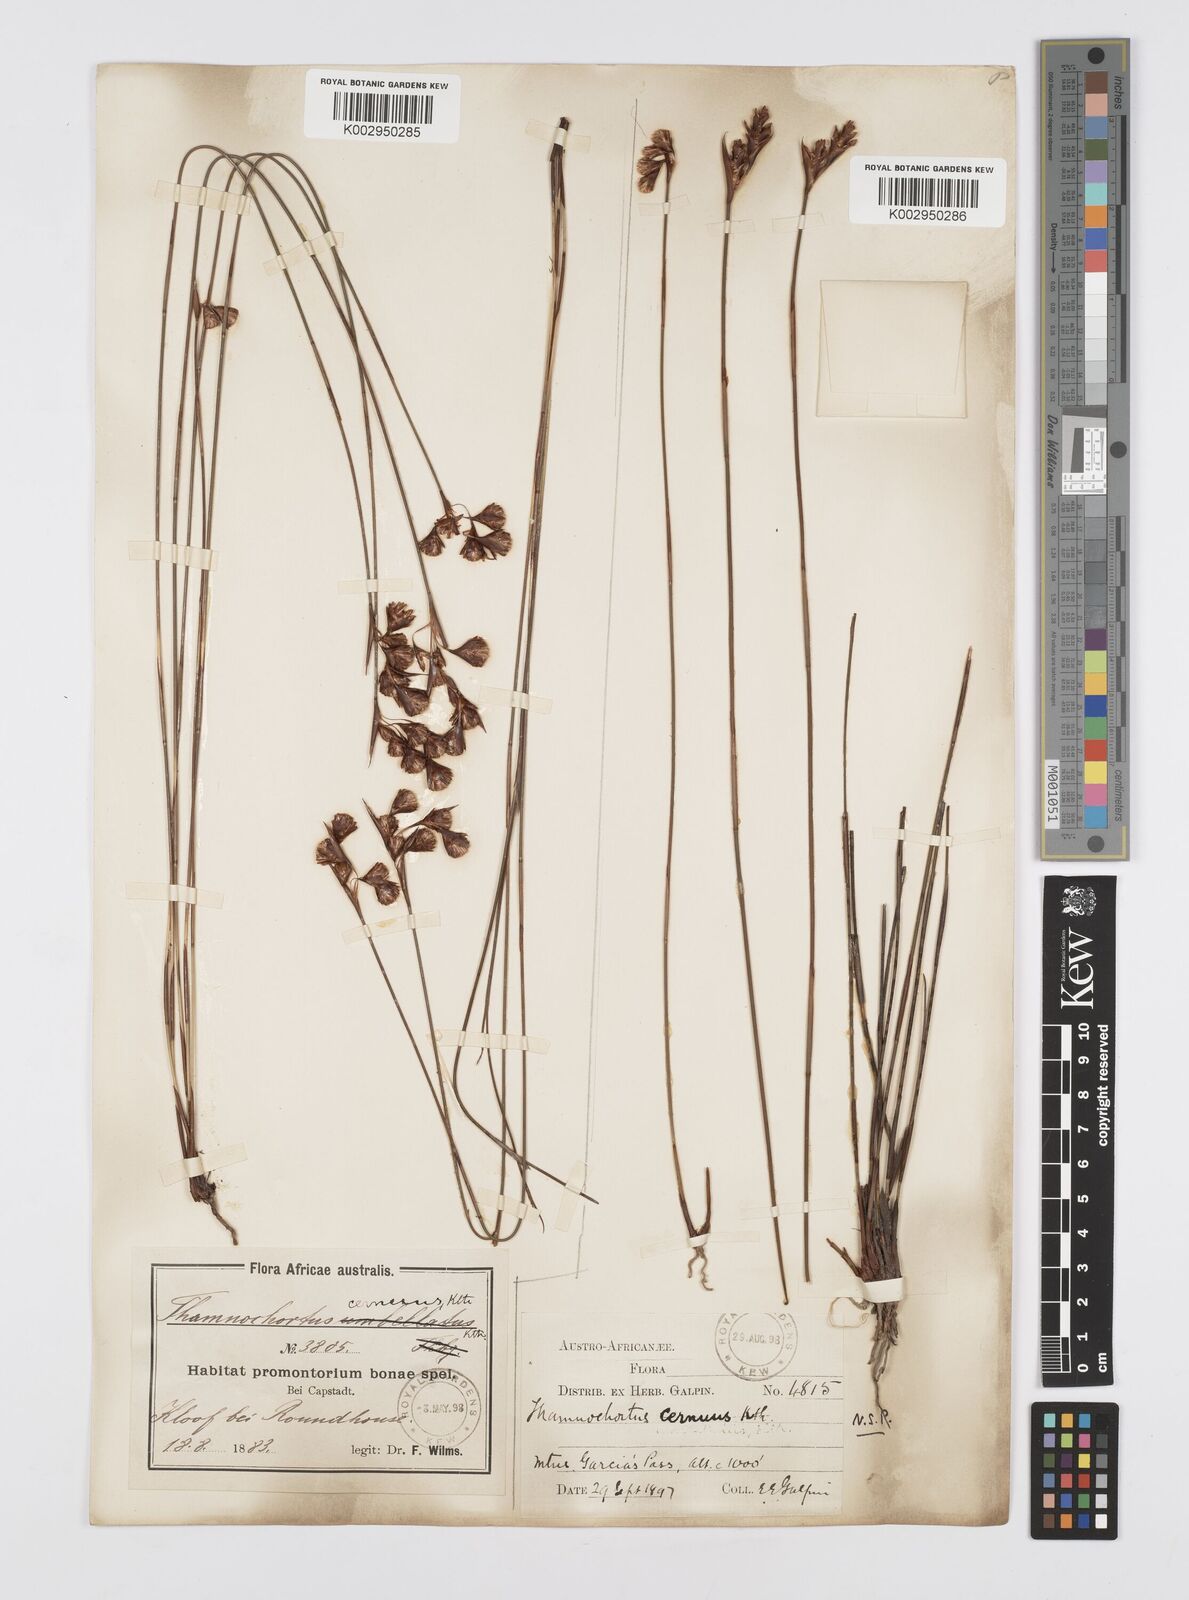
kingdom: Plantae
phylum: Tracheophyta
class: Liliopsida
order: Poales
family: Restionaceae
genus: Staberoha
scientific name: Staberoha cernua
